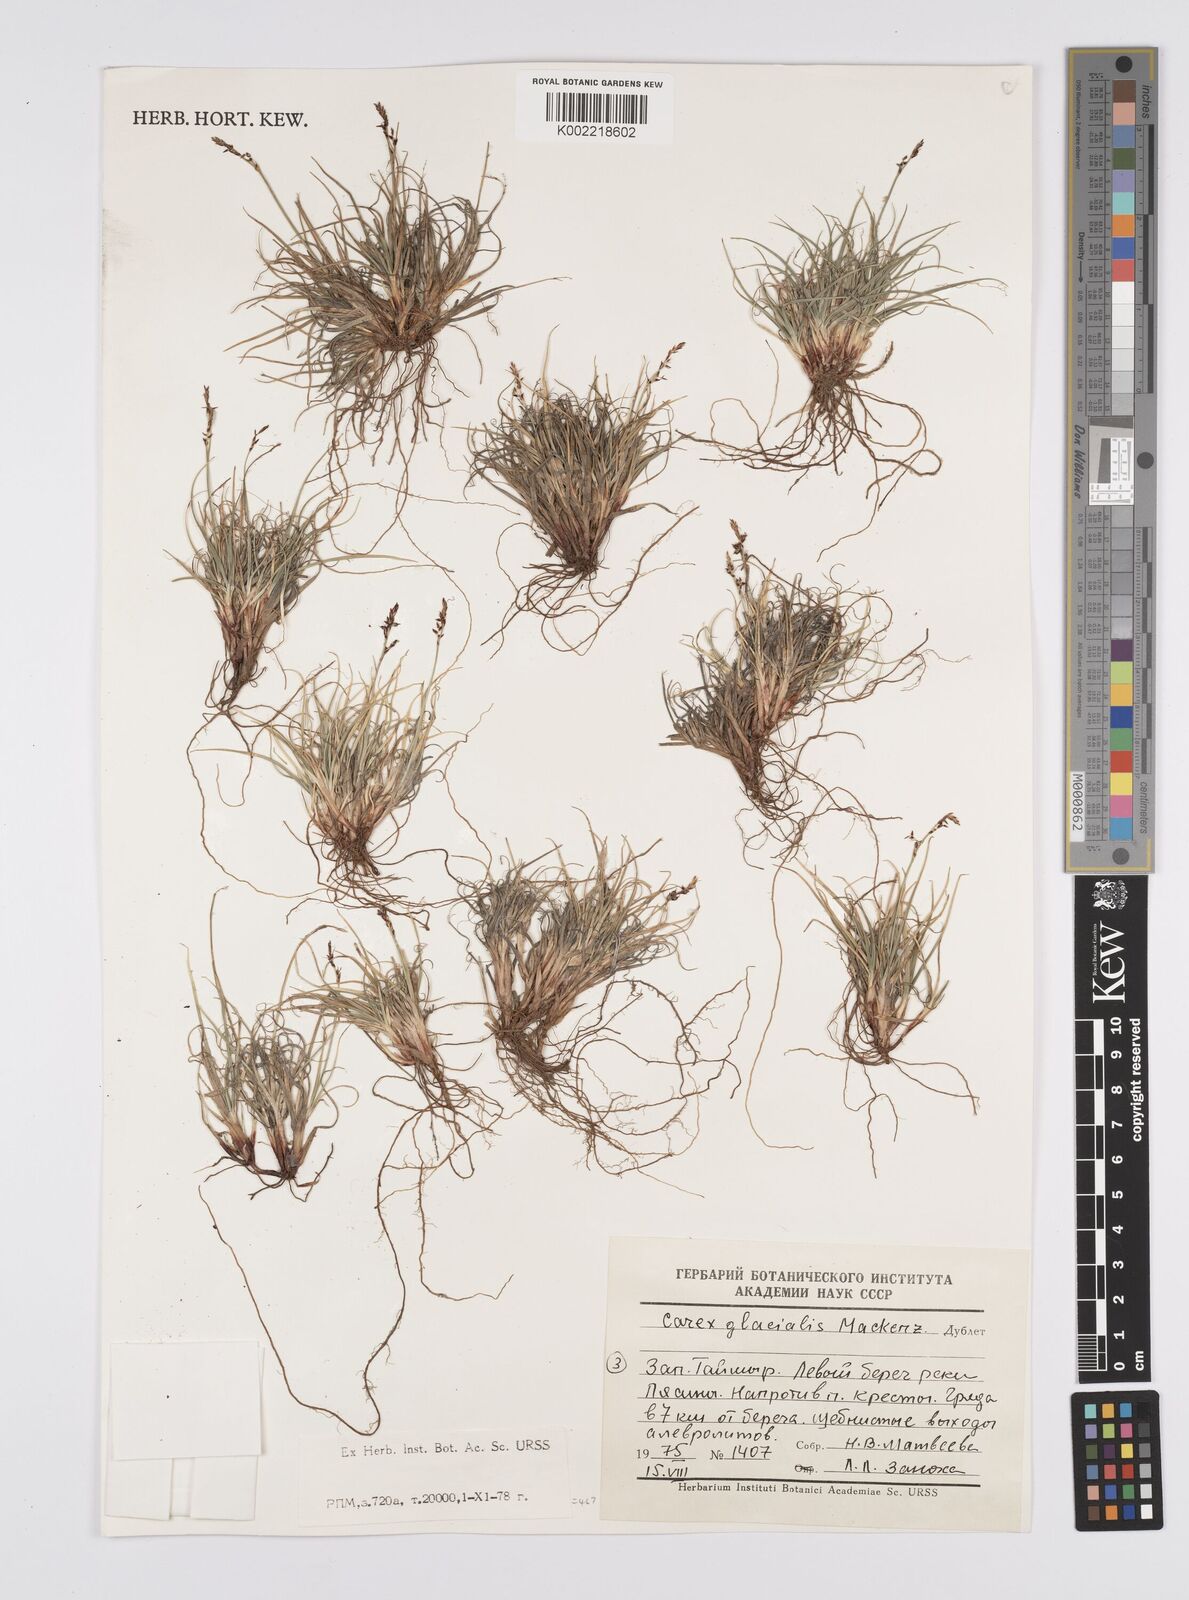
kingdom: Plantae
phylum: Tracheophyta
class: Liliopsida
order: Poales
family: Cyperaceae
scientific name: Cyperaceae
